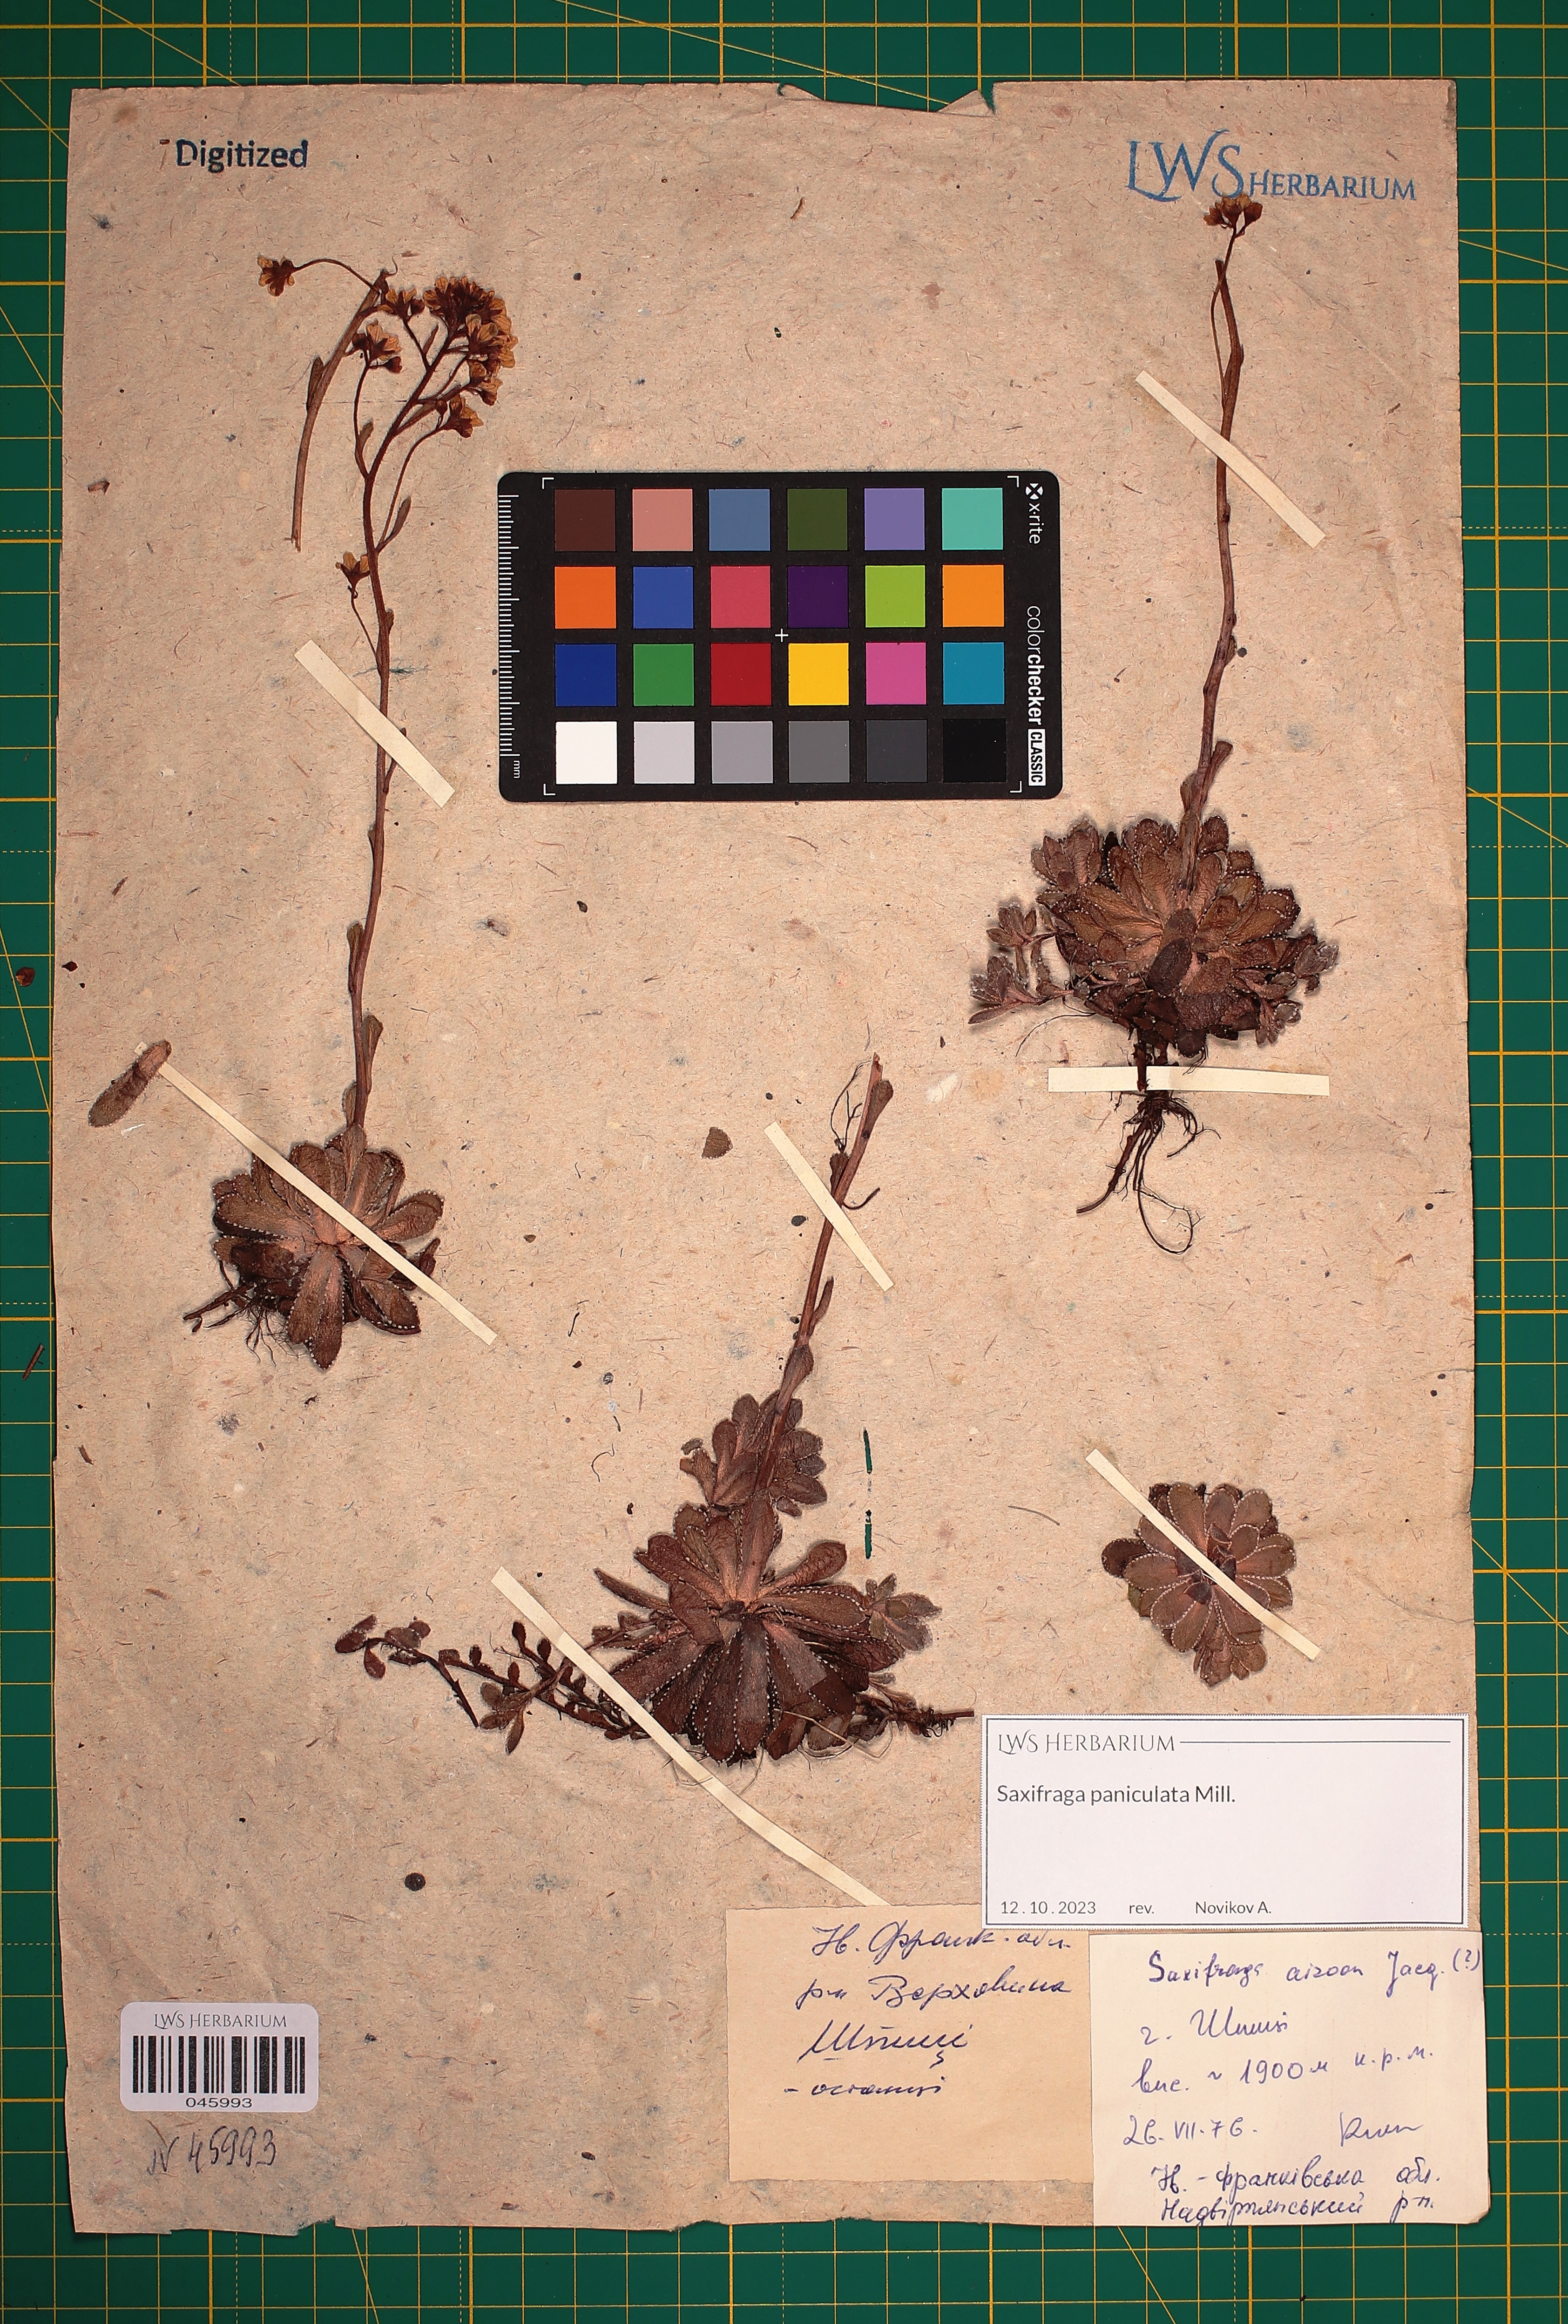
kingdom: Plantae
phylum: Tracheophyta
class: Magnoliopsida
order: Saxifragales
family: Saxifragaceae
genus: Saxifraga
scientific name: Saxifraga paniculata
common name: Livelong saxifrage
